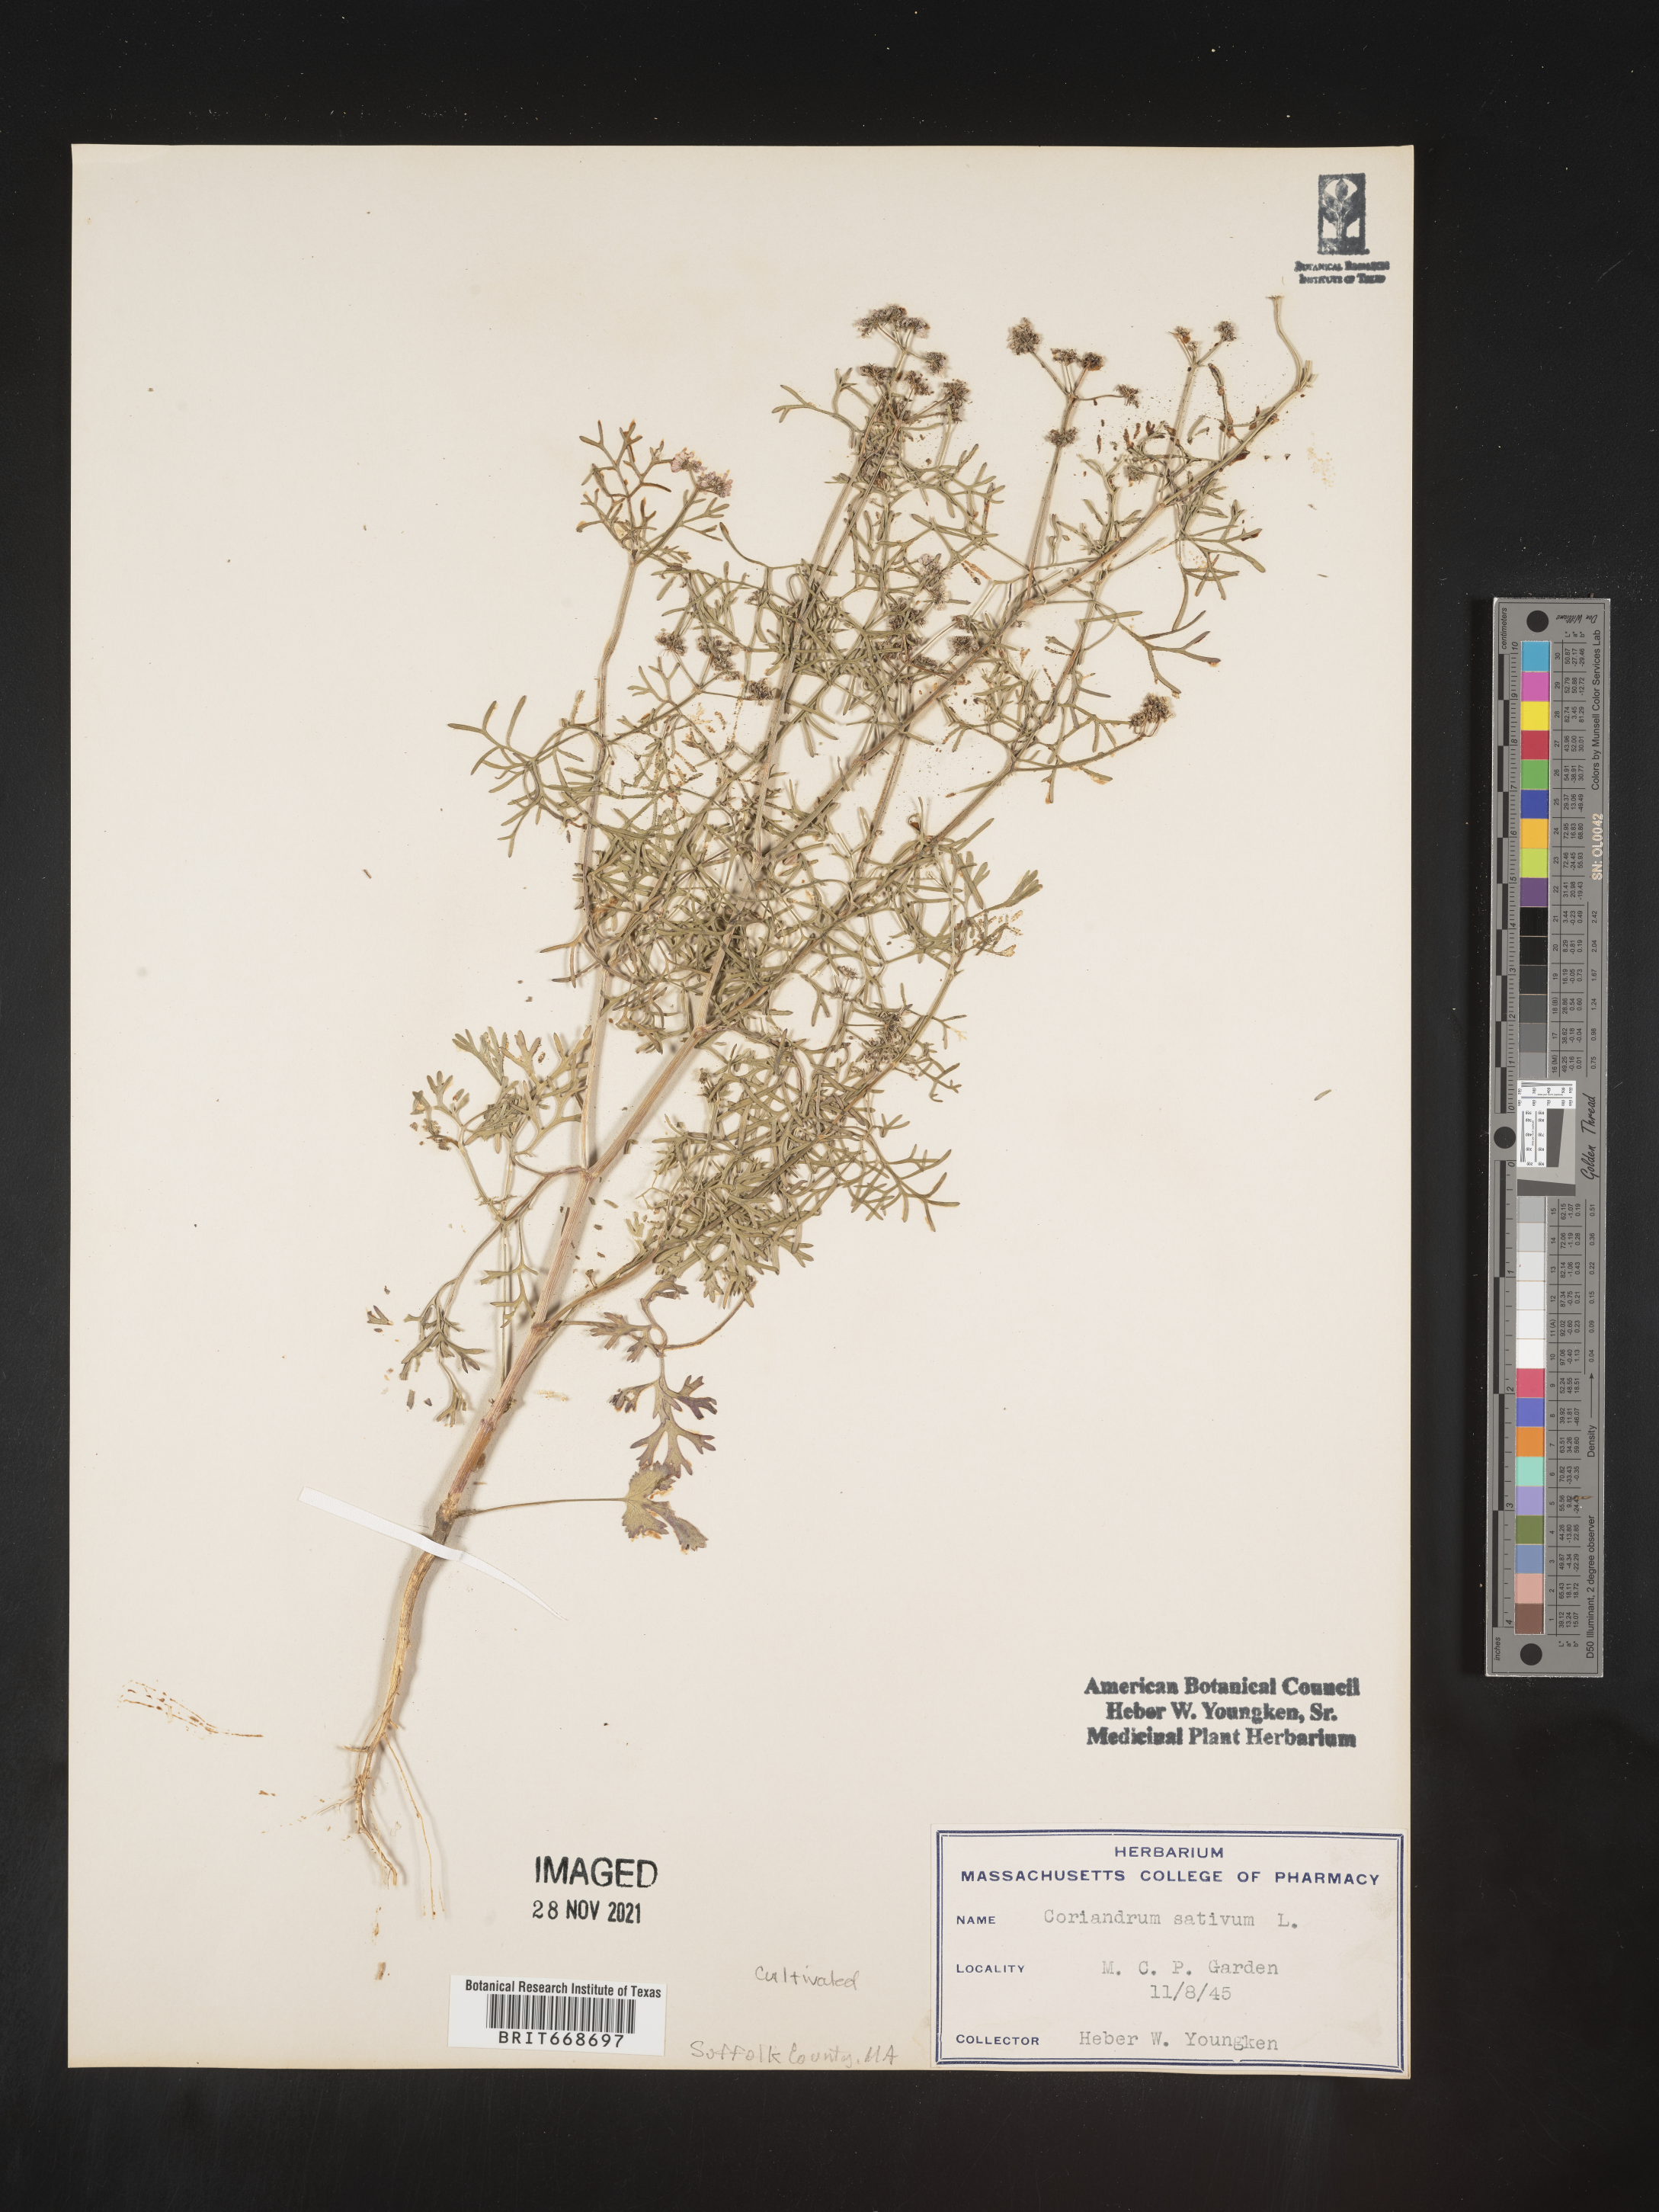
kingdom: Plantae
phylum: Tracheophyta
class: Magnoliopsida
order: Apiales
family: Apiaceae
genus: Coriandrum
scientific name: Coriandrum
